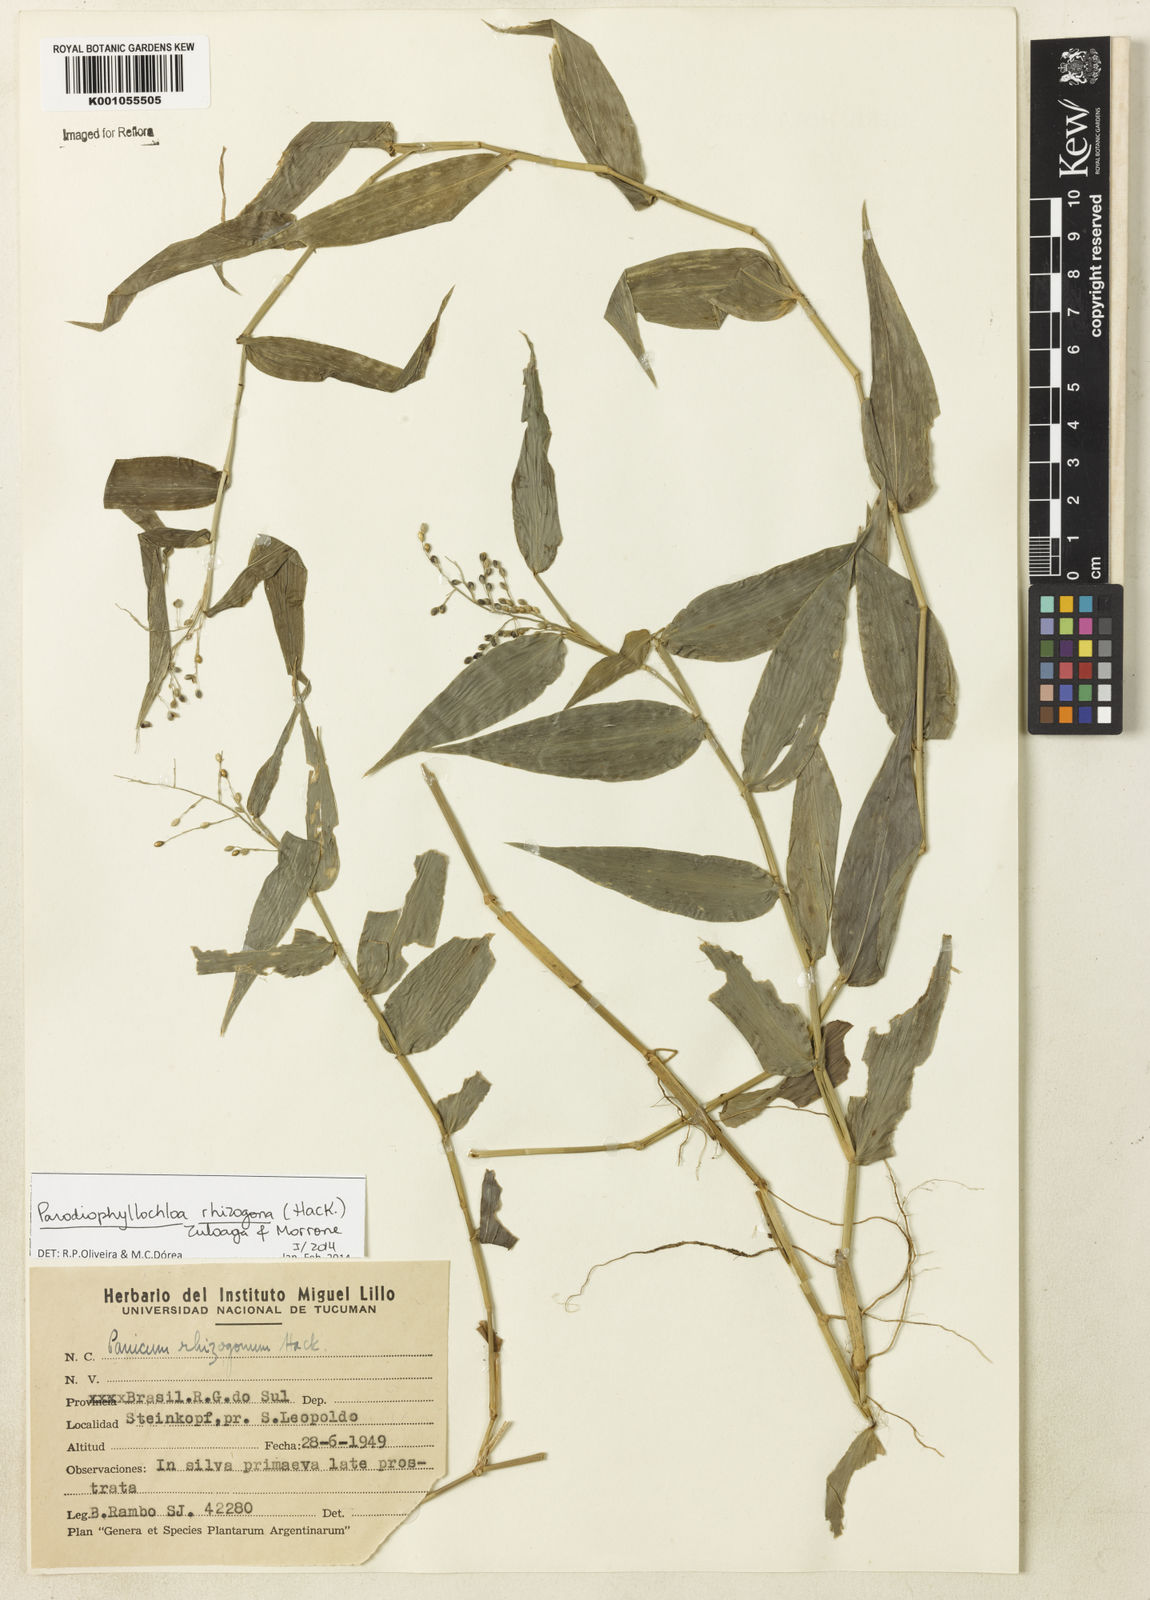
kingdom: Plantae
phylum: Tracheophyta
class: Liliopsida
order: Poales
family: Poaceae
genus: Parodiophyllochloa
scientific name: Parodiophyllochloa rhizogona
